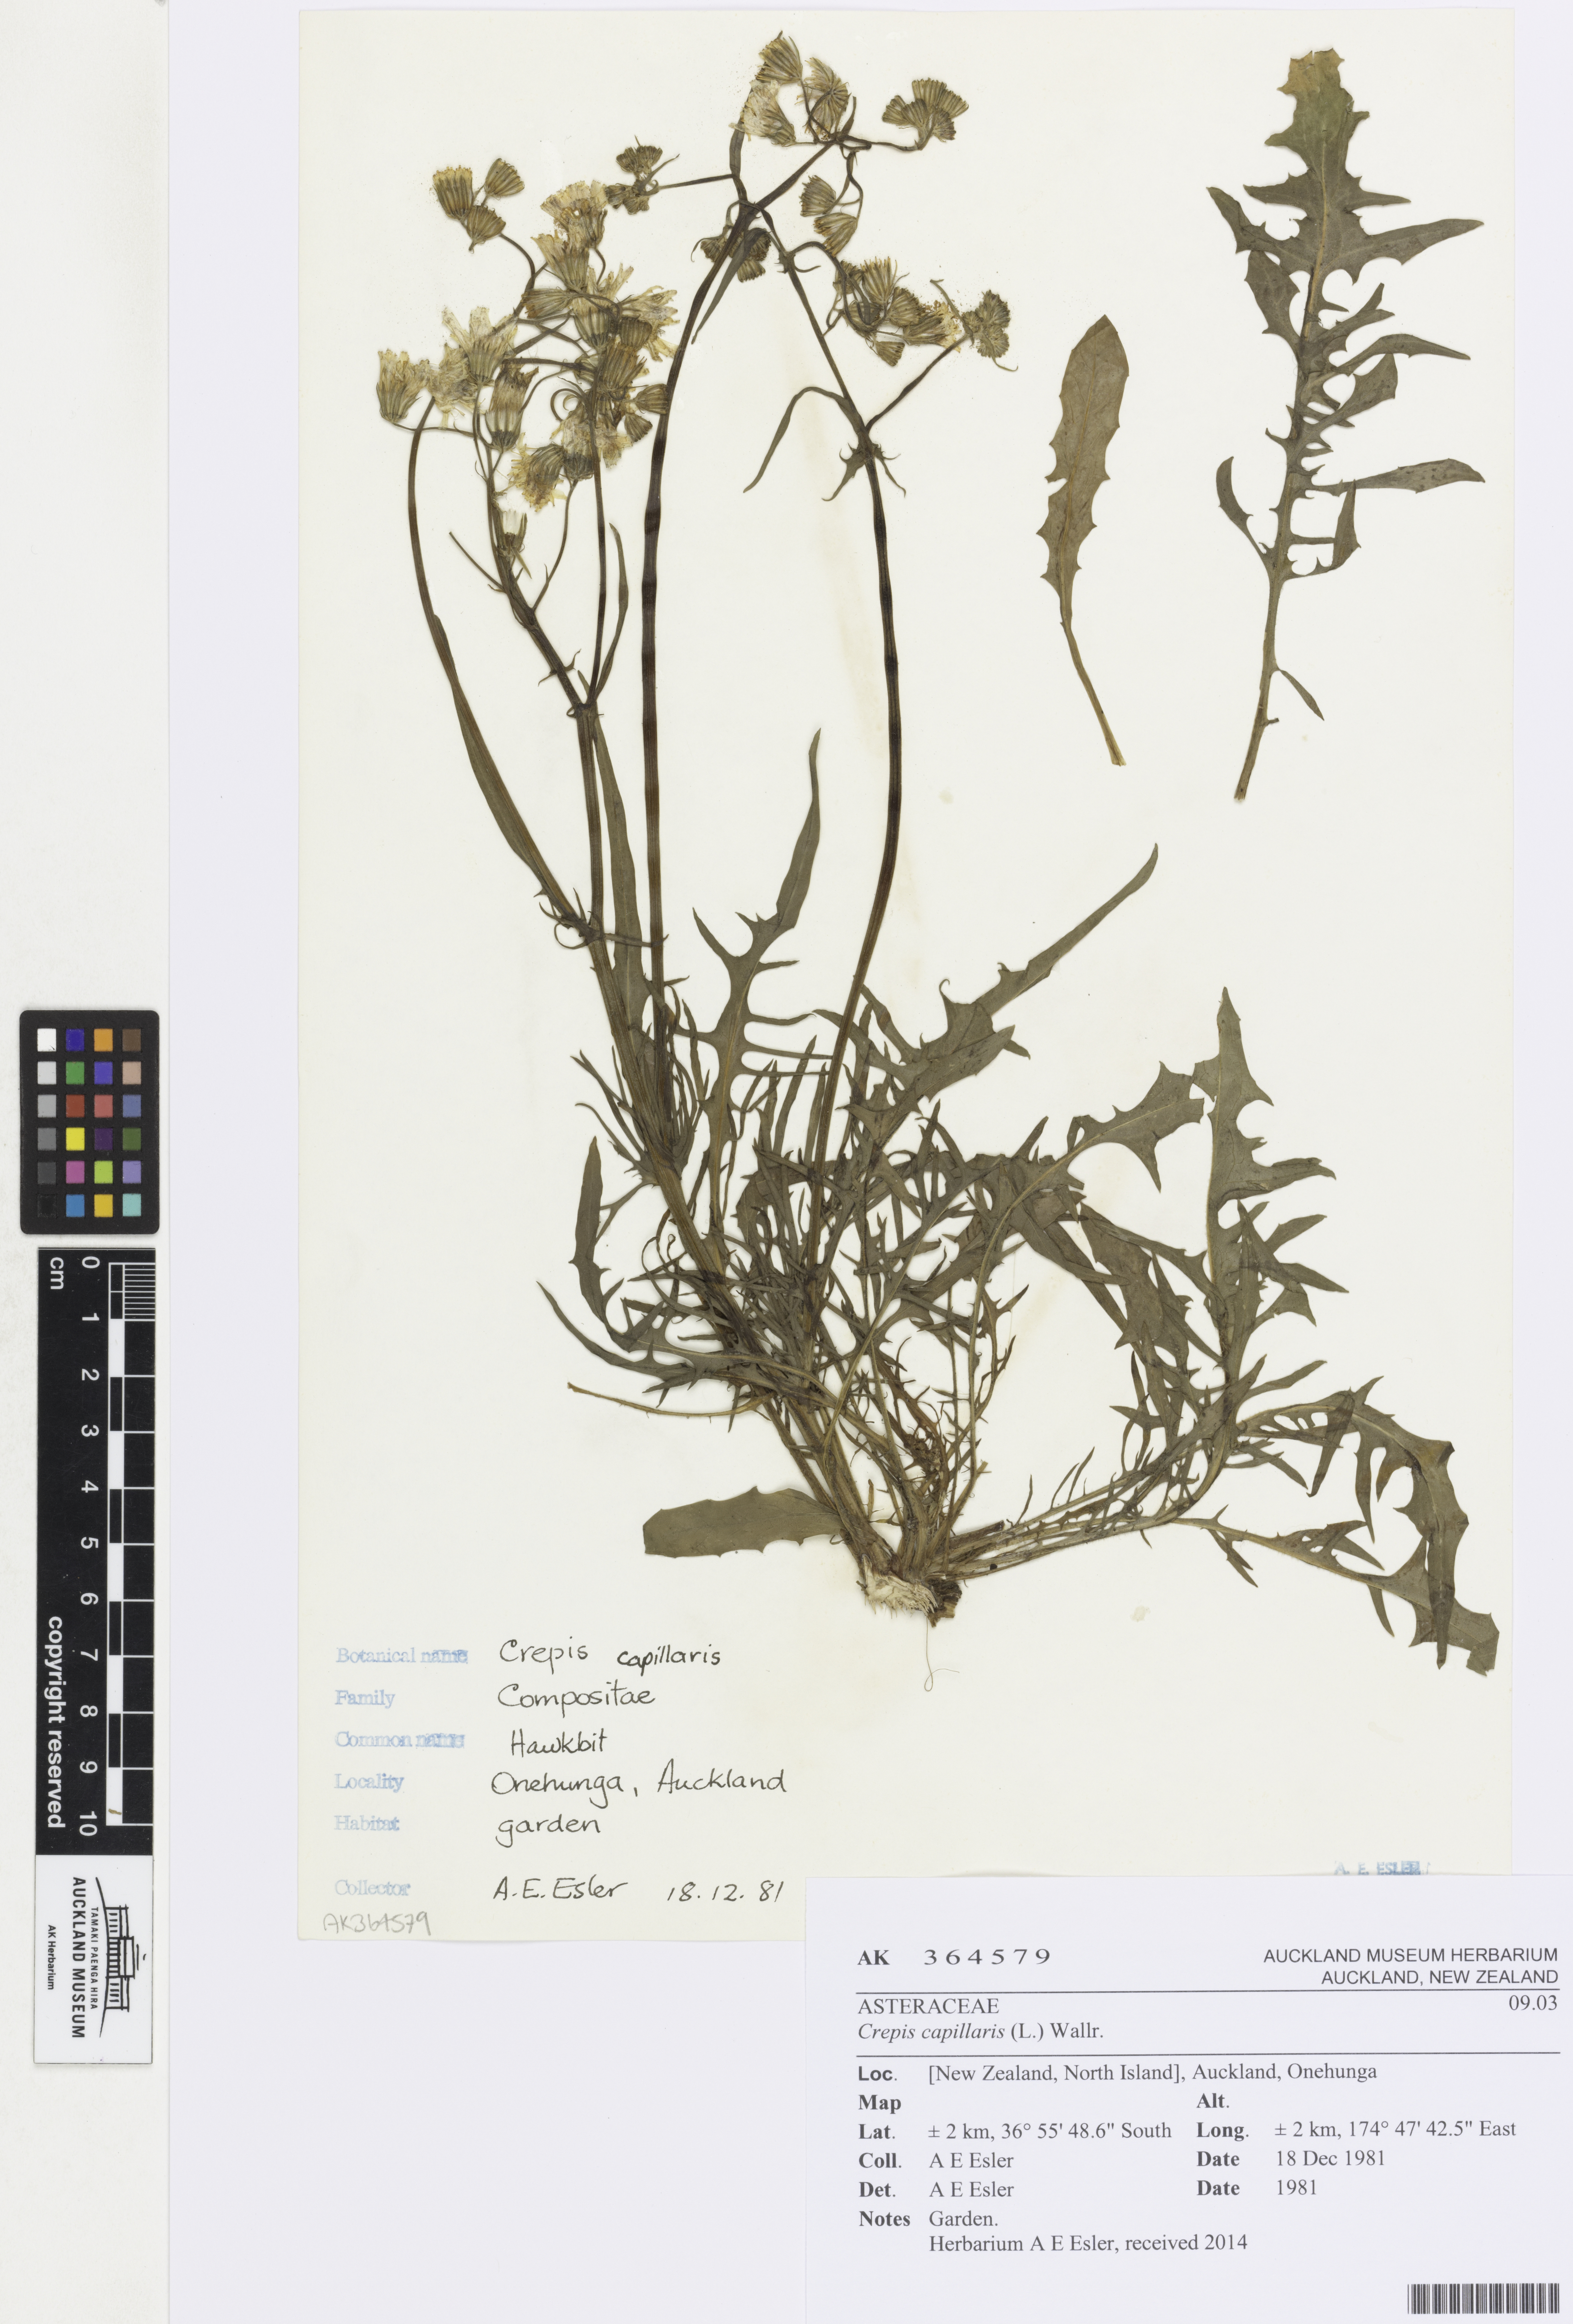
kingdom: Plantae
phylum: Tracheophyta
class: Magnoliopsida
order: Asterales
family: Asteraceae
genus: Crepis
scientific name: Crepis capillaris
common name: Smooth hawksbeard
